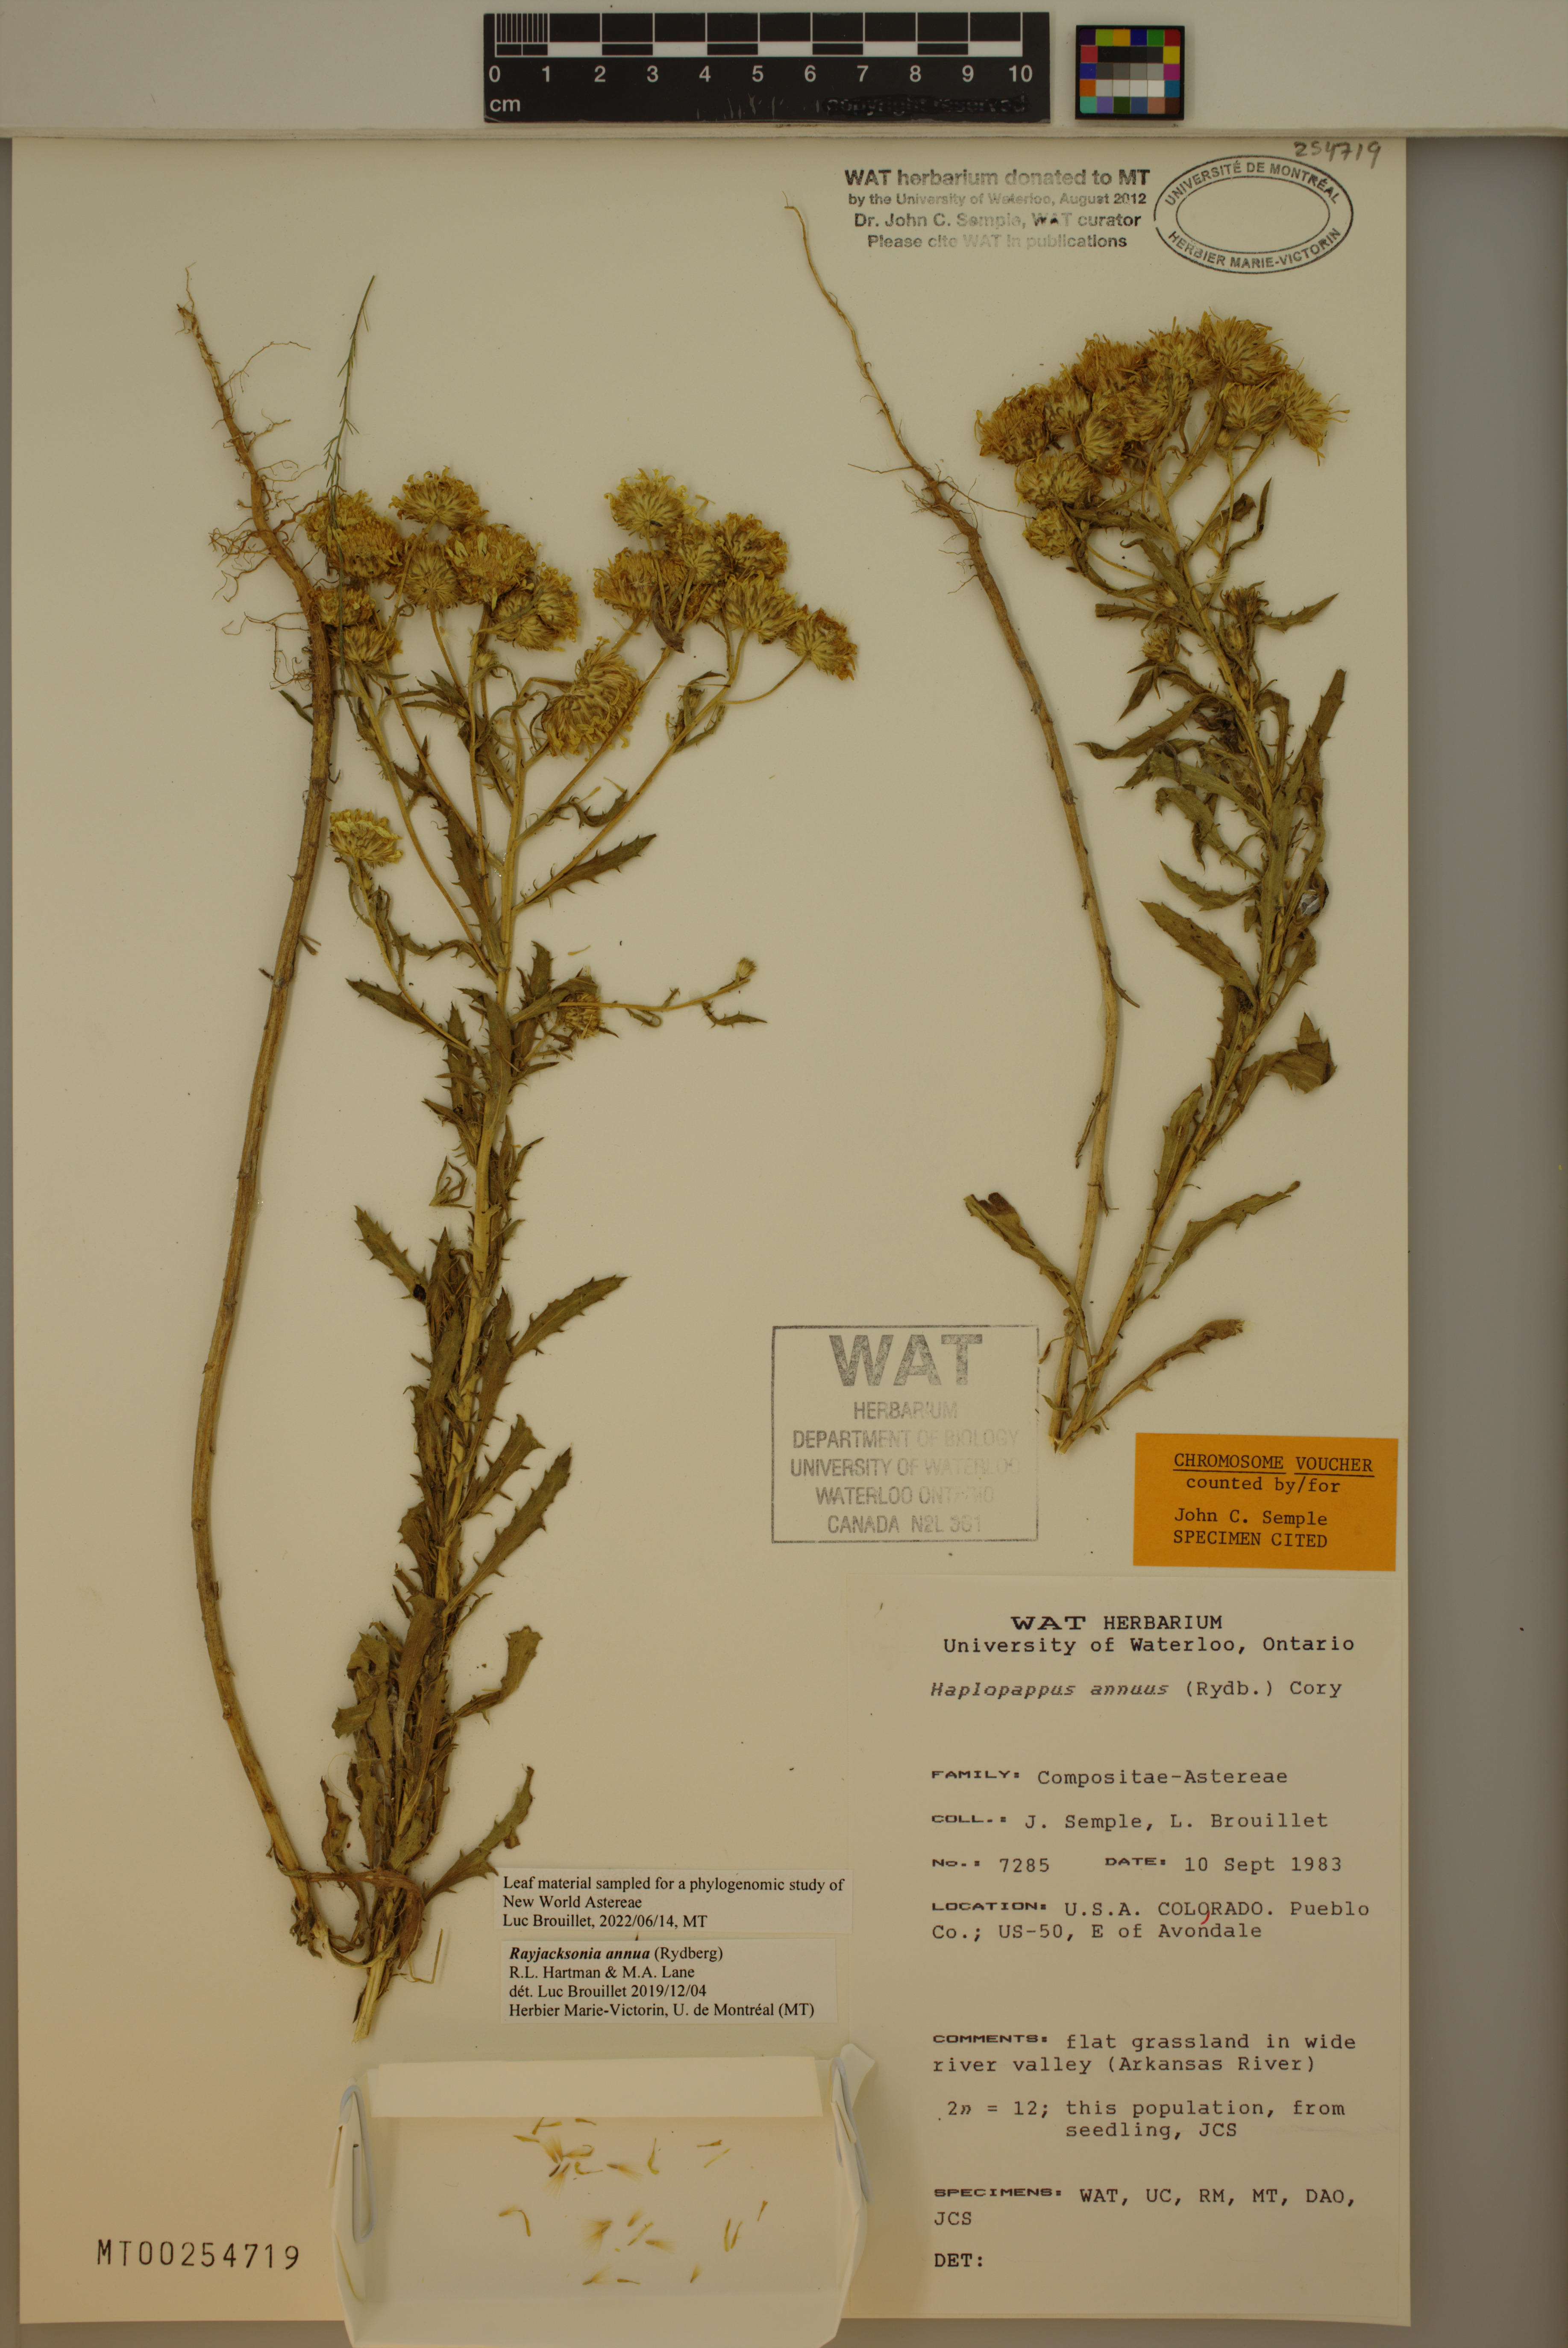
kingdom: Plantae
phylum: Tracheophyta
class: Magnoliopsida
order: Asterales
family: Asteraceae
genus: Rayjacksonia
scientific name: Rayjacksonia annua
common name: Viscid camphor daisy
